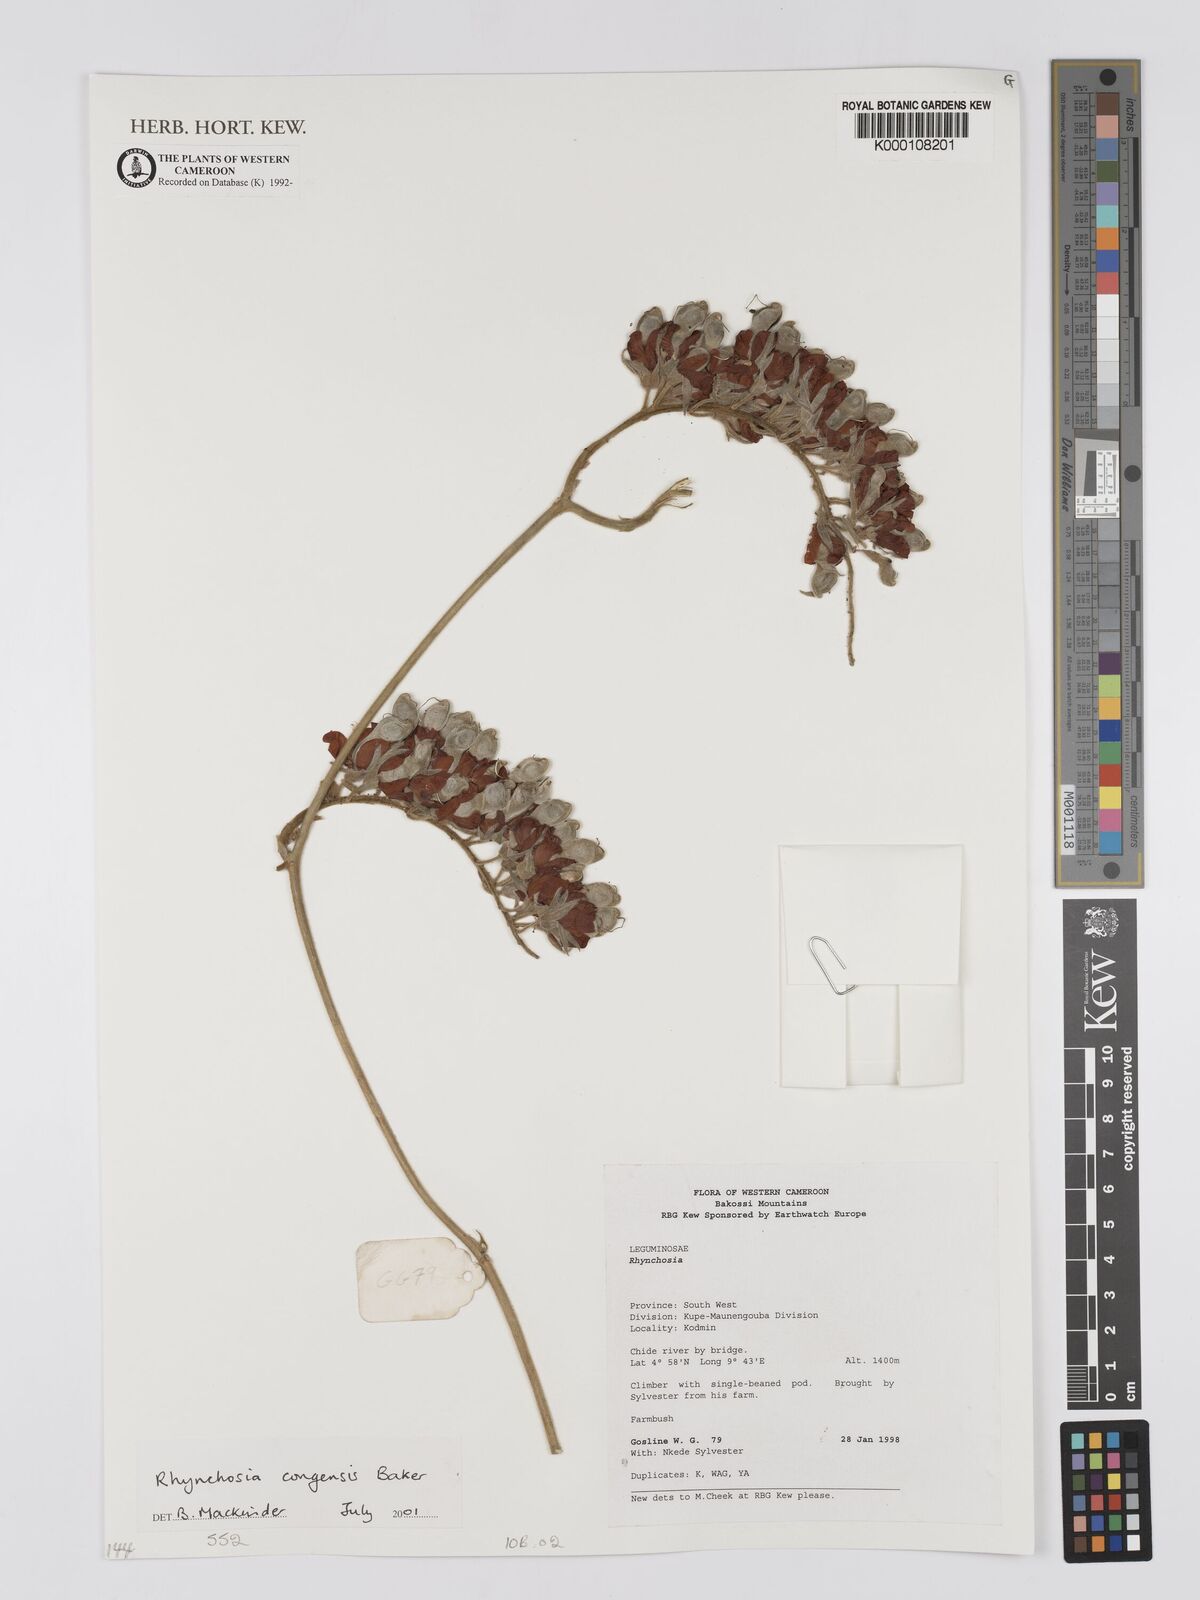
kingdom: Plantae
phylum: Tracheophyta
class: Magnoliopsida
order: Fabales
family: Fabaceae
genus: Rhynchosia
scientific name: Rhynchosia congensis
